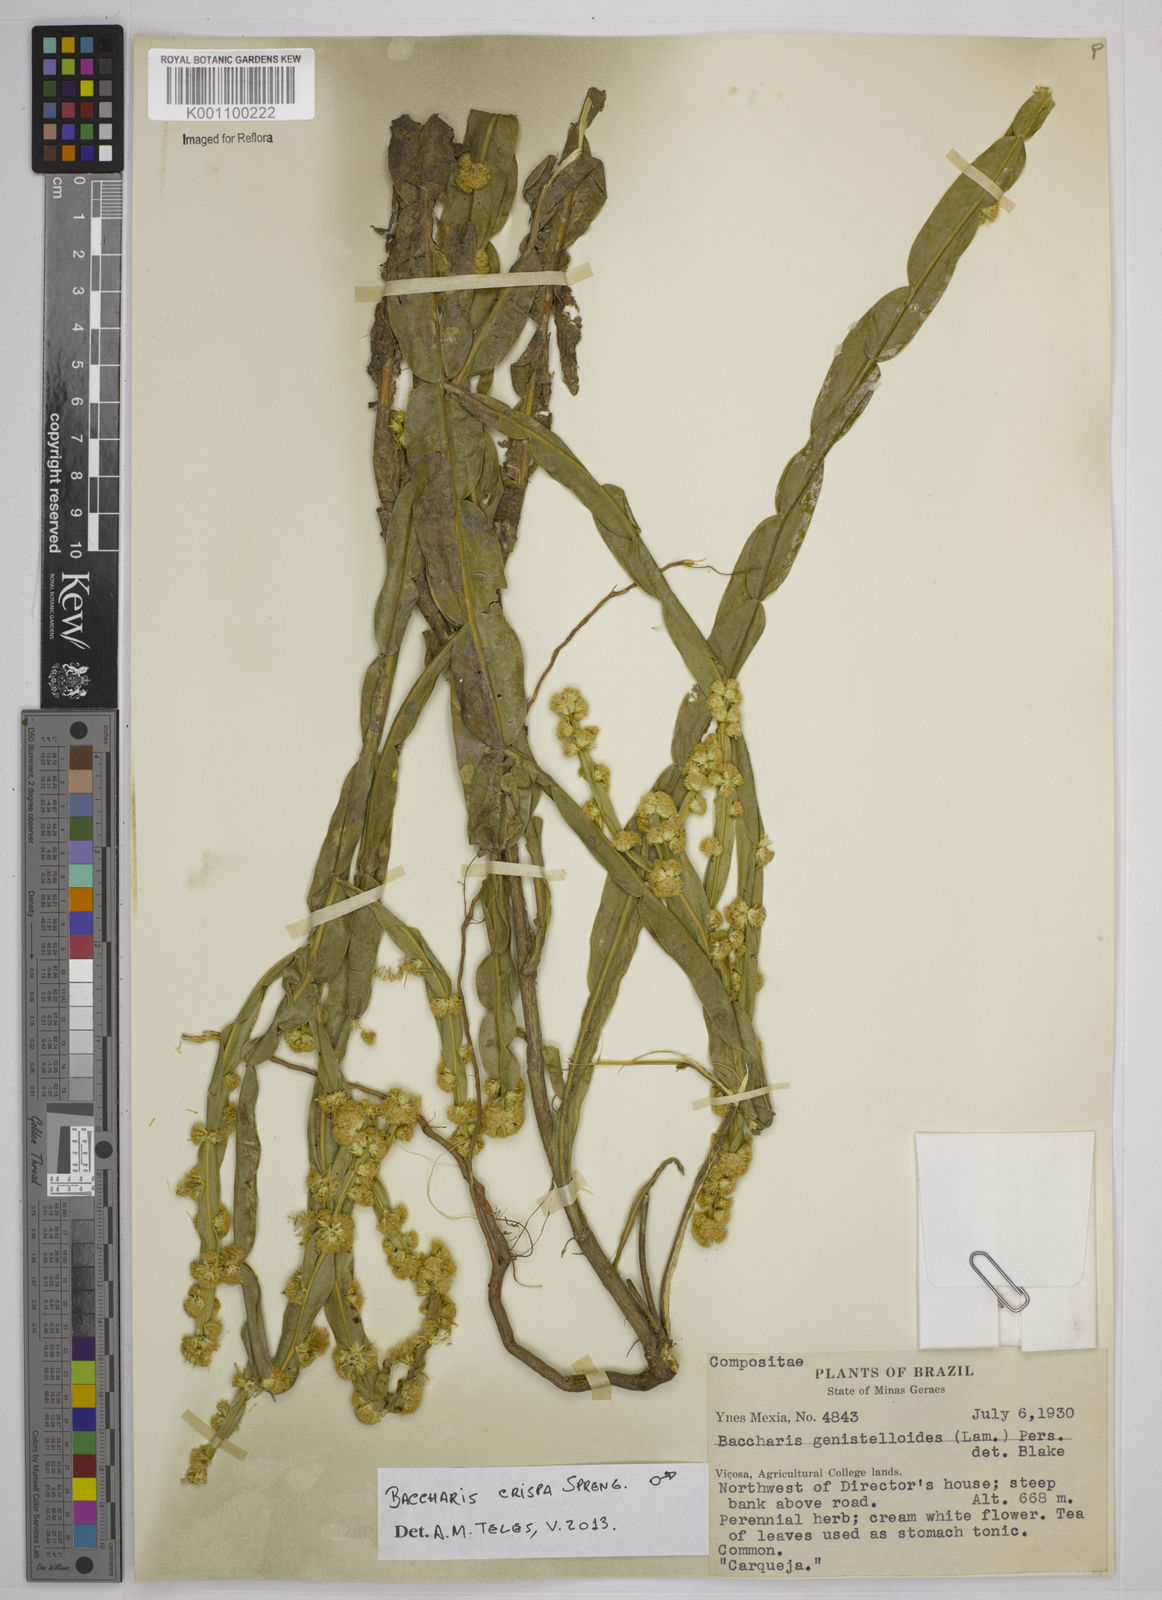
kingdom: Plantae
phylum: Tracheophyta
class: Magnoliopsida
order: Asterales
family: Asteraceae
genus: Baccharis
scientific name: Baccharis
